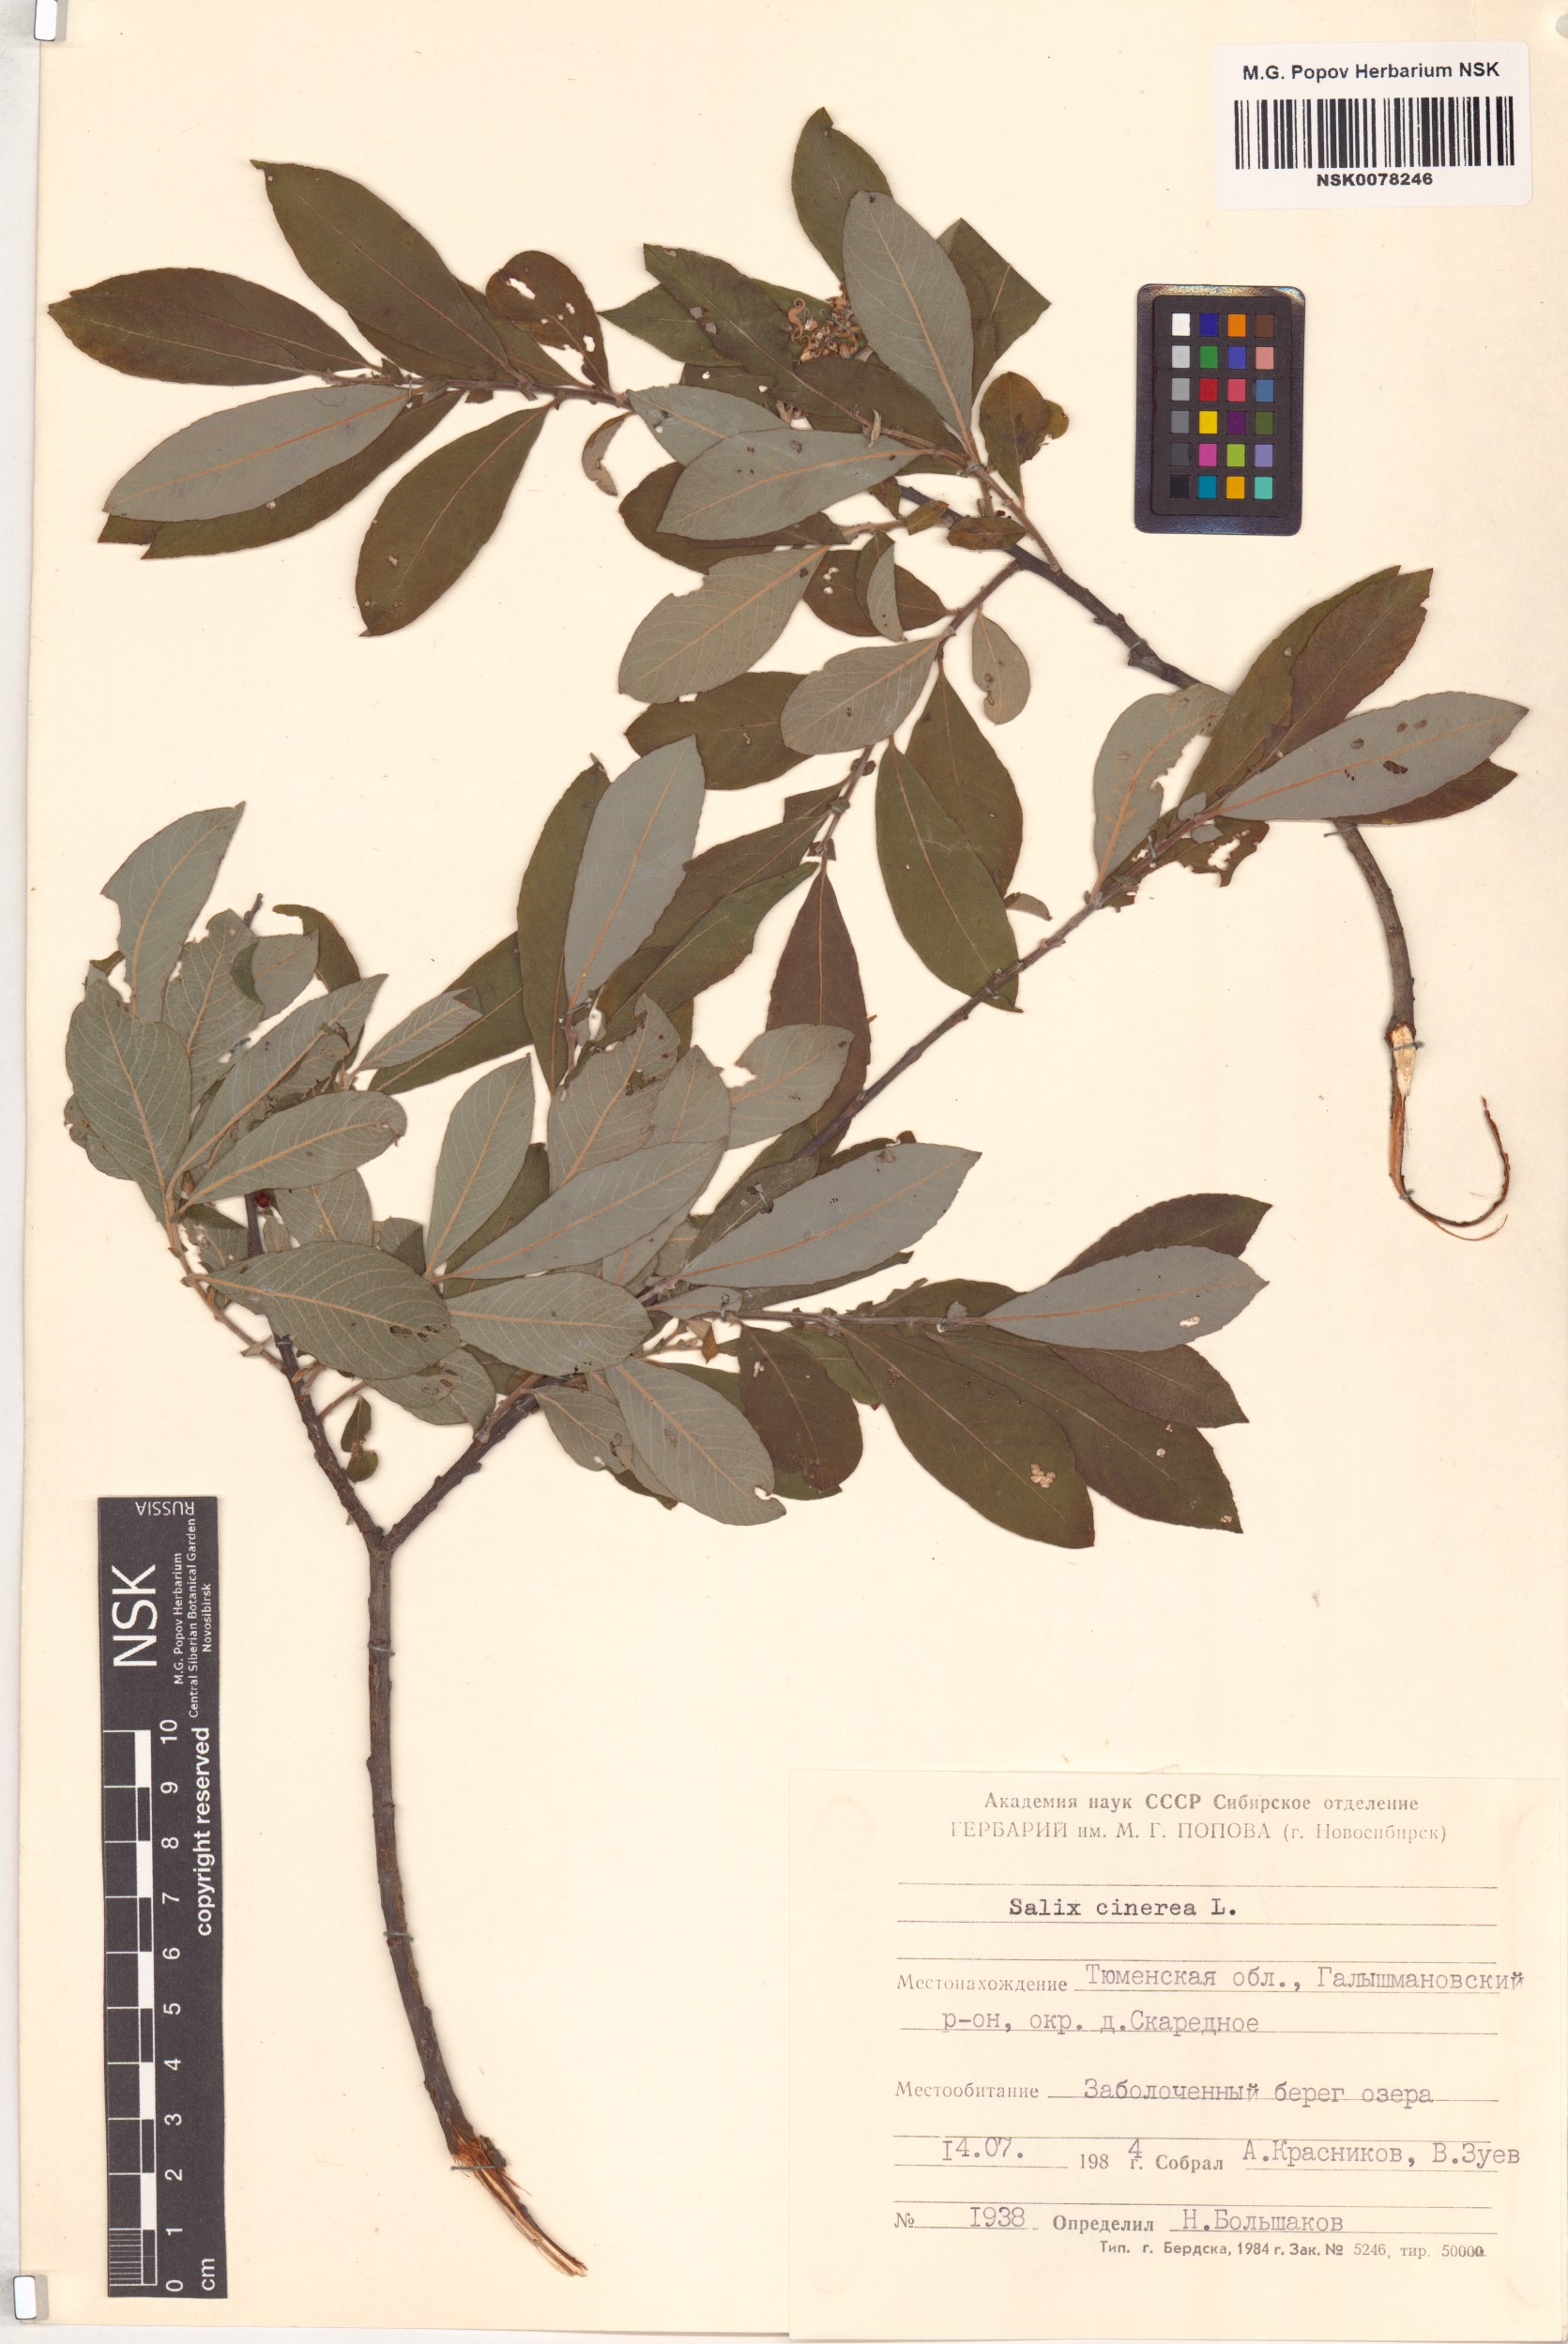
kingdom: Plantae
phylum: Tracheophyta
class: Magnoliopsida
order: Malpighiales
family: Salicaceae
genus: Salix
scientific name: Salix cinerea
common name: Common sallow
